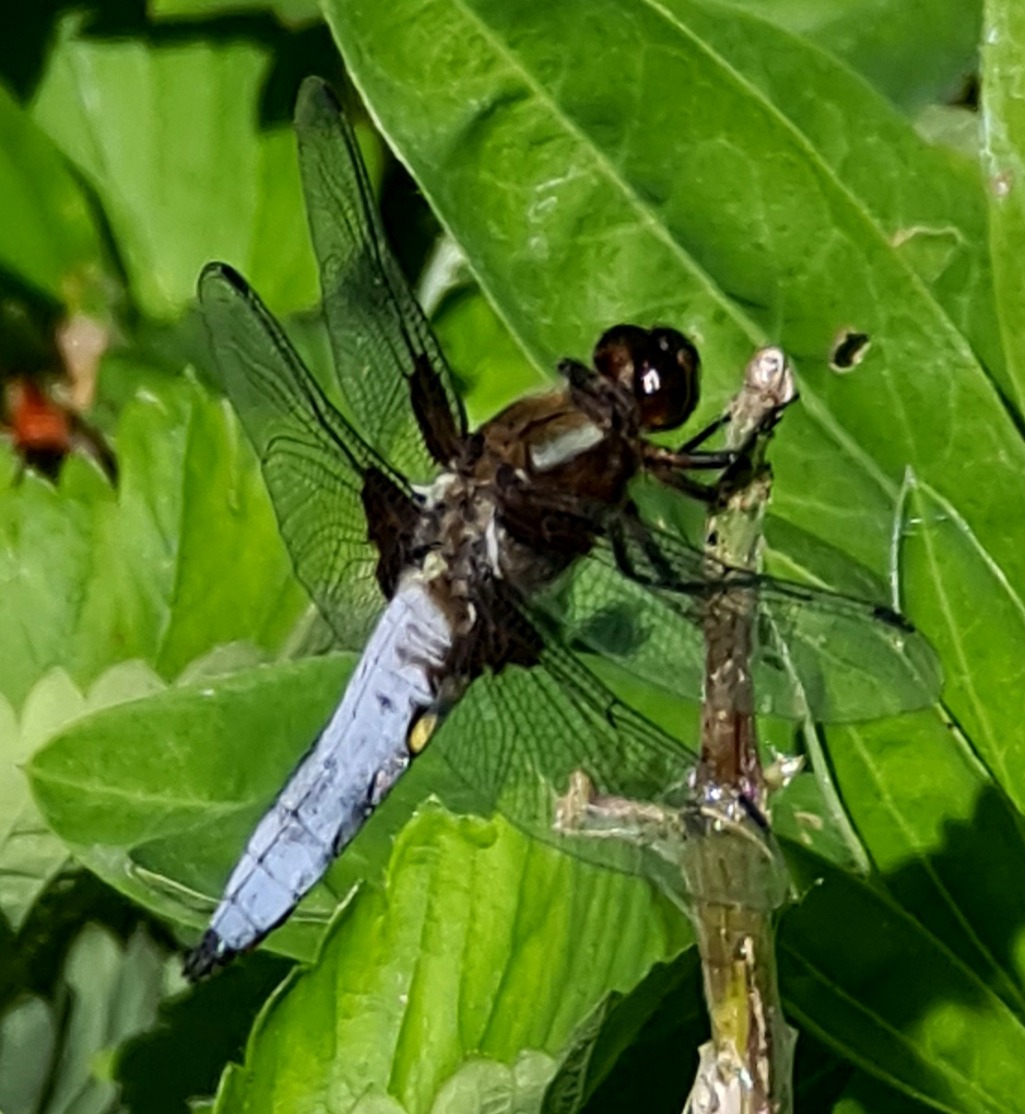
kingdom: Animalia
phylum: Arthropoda
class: Insecta
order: Odonata
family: Libellulidae
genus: Libellula
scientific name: Libellula depressa
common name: Blå libel
